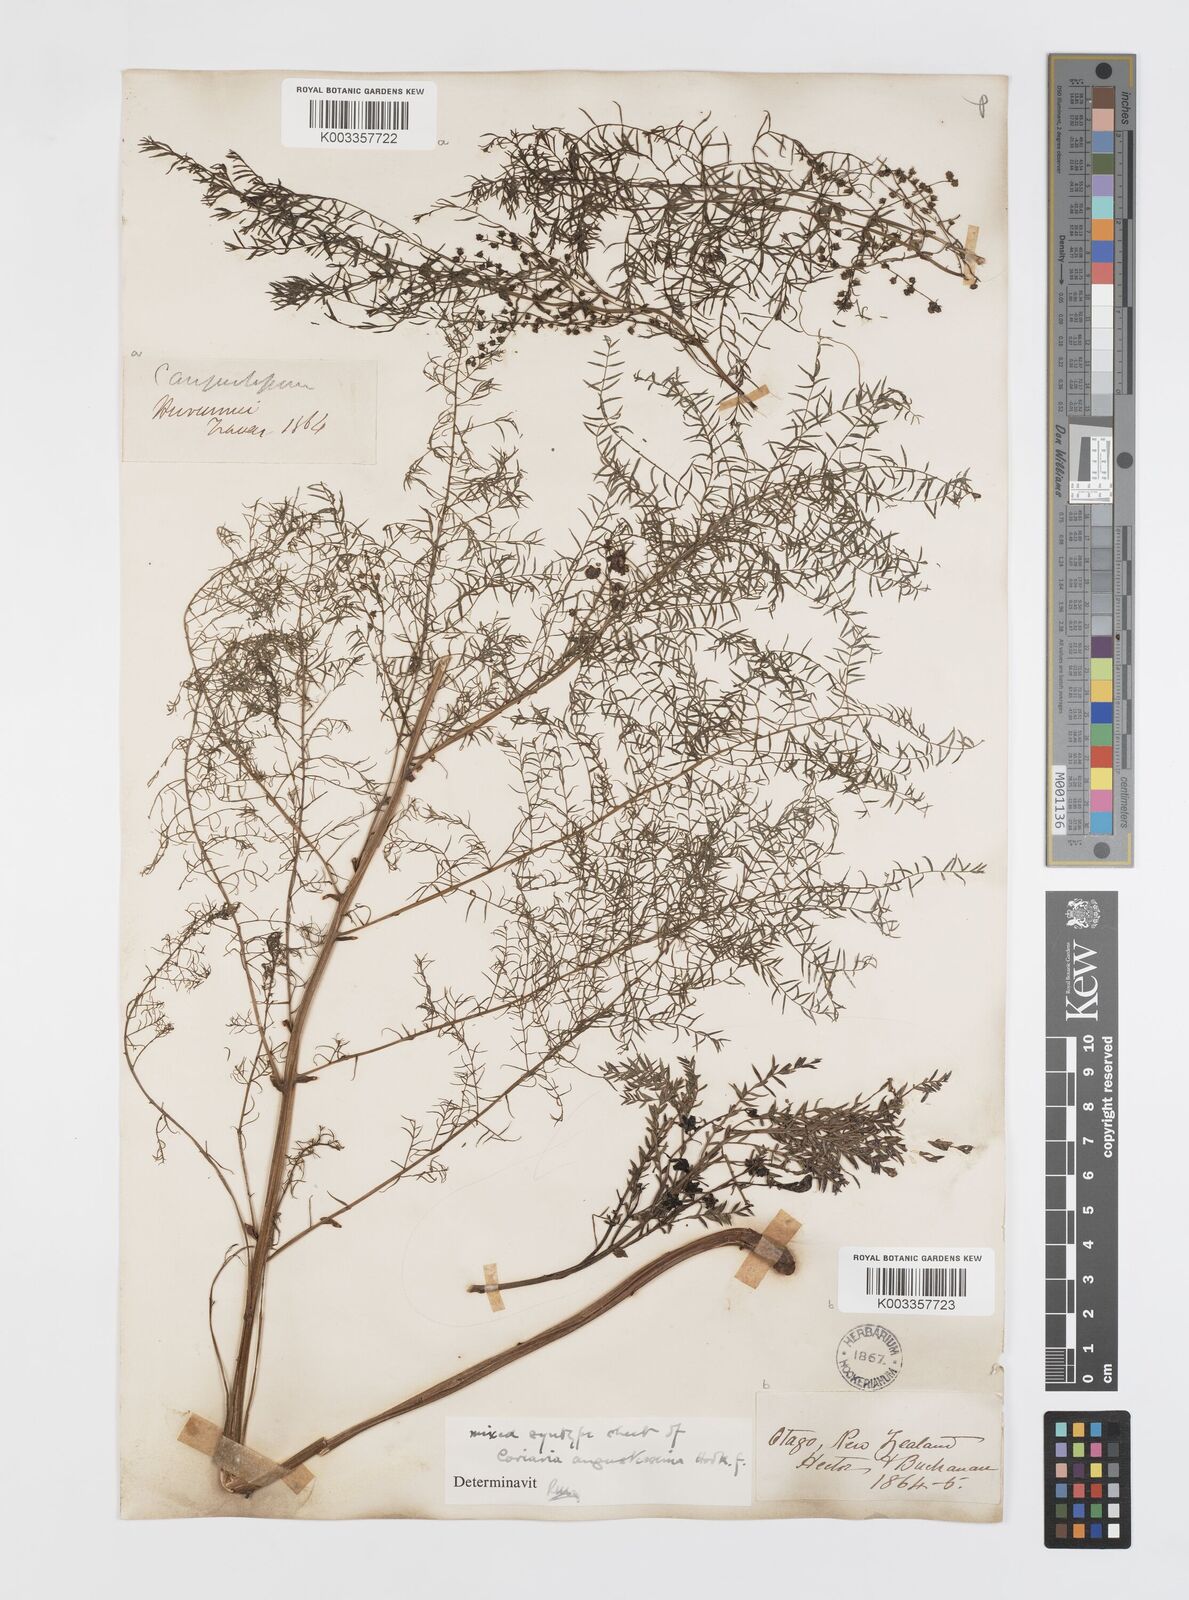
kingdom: Plantae
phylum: Tracheophyta
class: Magnoliopsida
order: Cucurbitales
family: Coriariaceae
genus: Coriaria
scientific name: Coriaria angustissima
